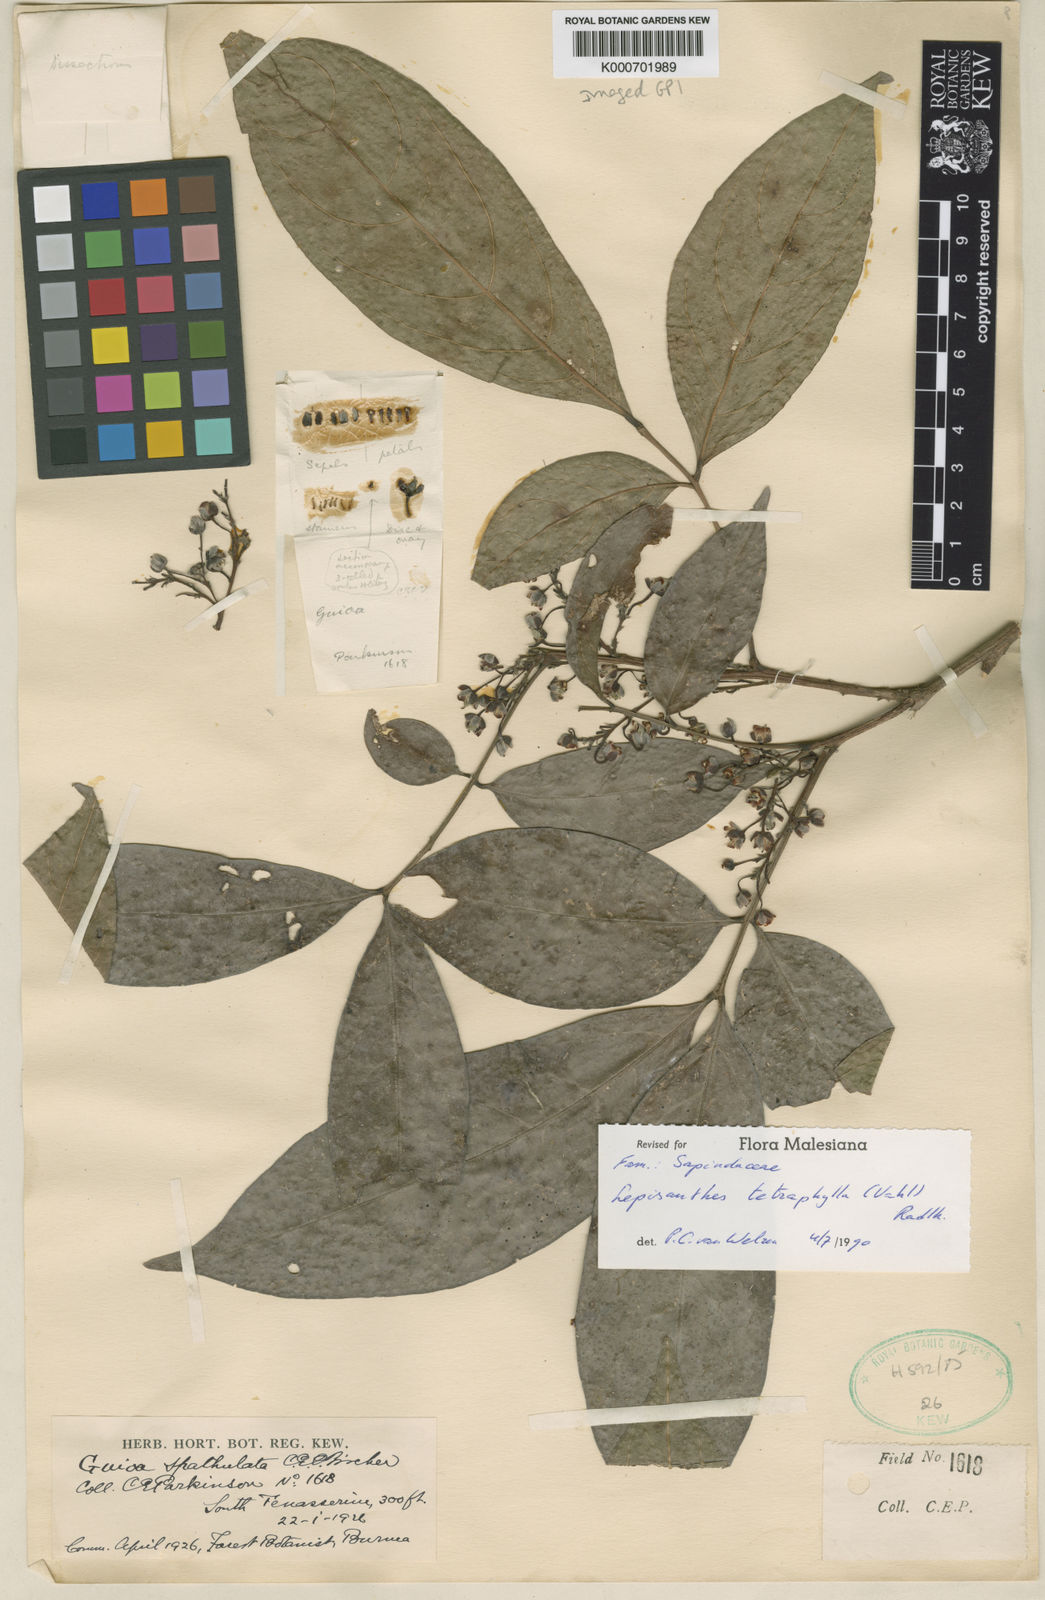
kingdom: Plantae
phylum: Tracheophyta
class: Magnoliopsida
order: Sapindales
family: Sapindaceae
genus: Lepisanthes
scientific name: Lepisanthes tetraphylla
